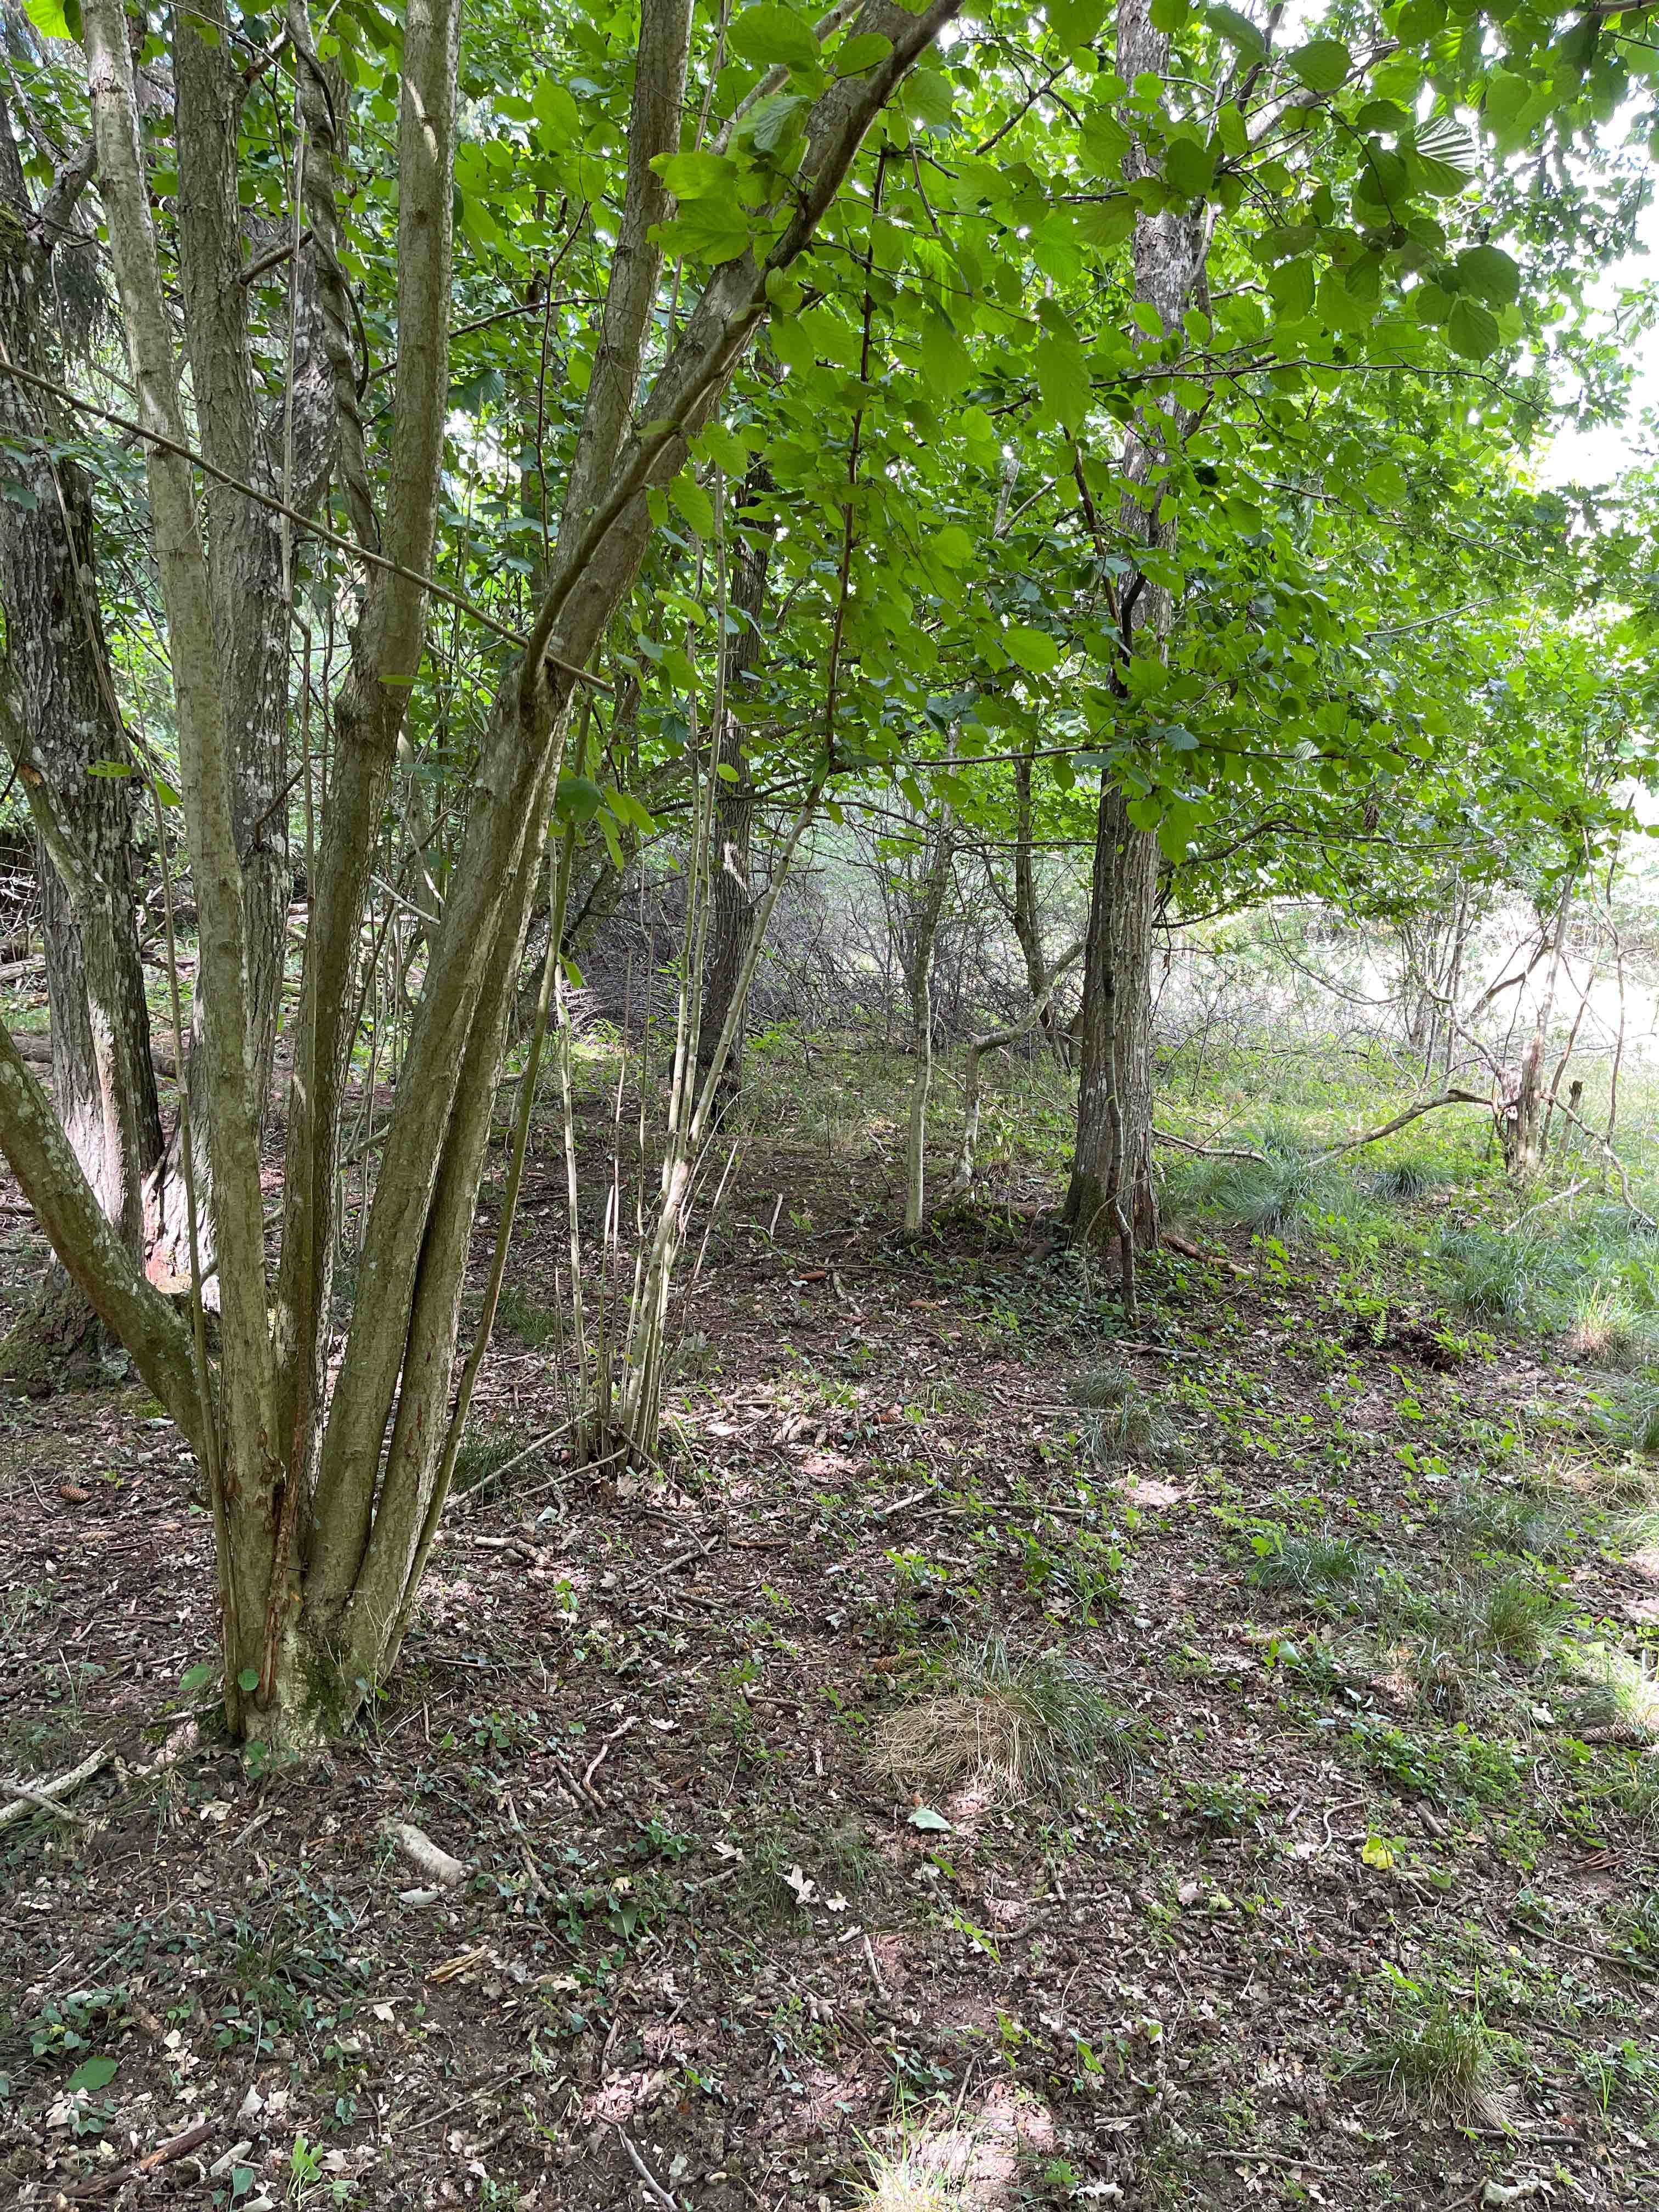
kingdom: Fungi
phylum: Basidiomycota
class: Agaricomycetes
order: Russulales
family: Russulaceae
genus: Russula
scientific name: Russula
